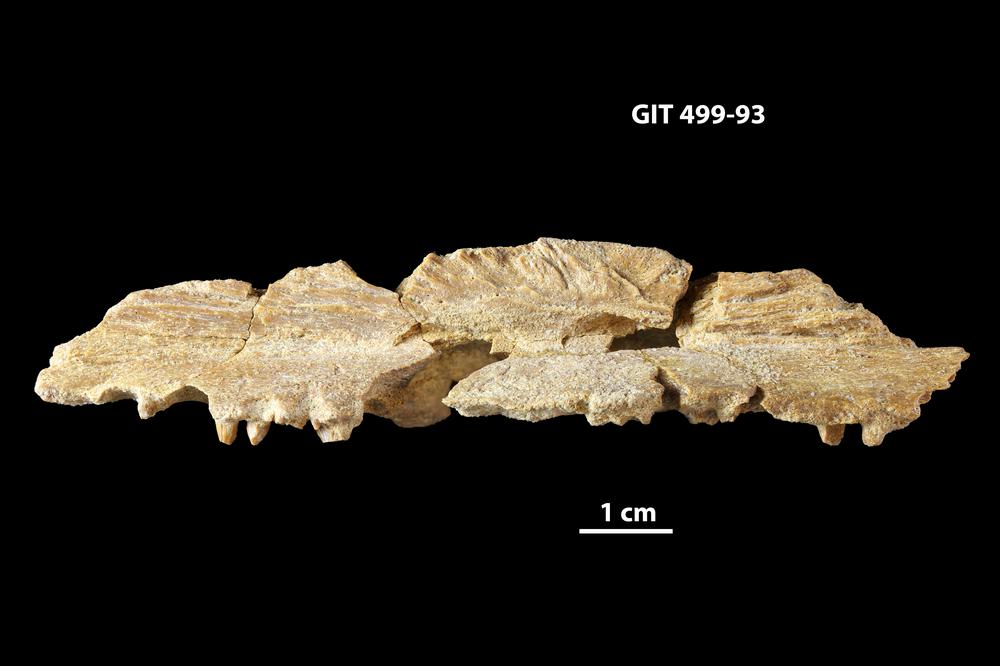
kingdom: Animalia
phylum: Chordata
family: Holoptychiidae
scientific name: Holoptychiidae
